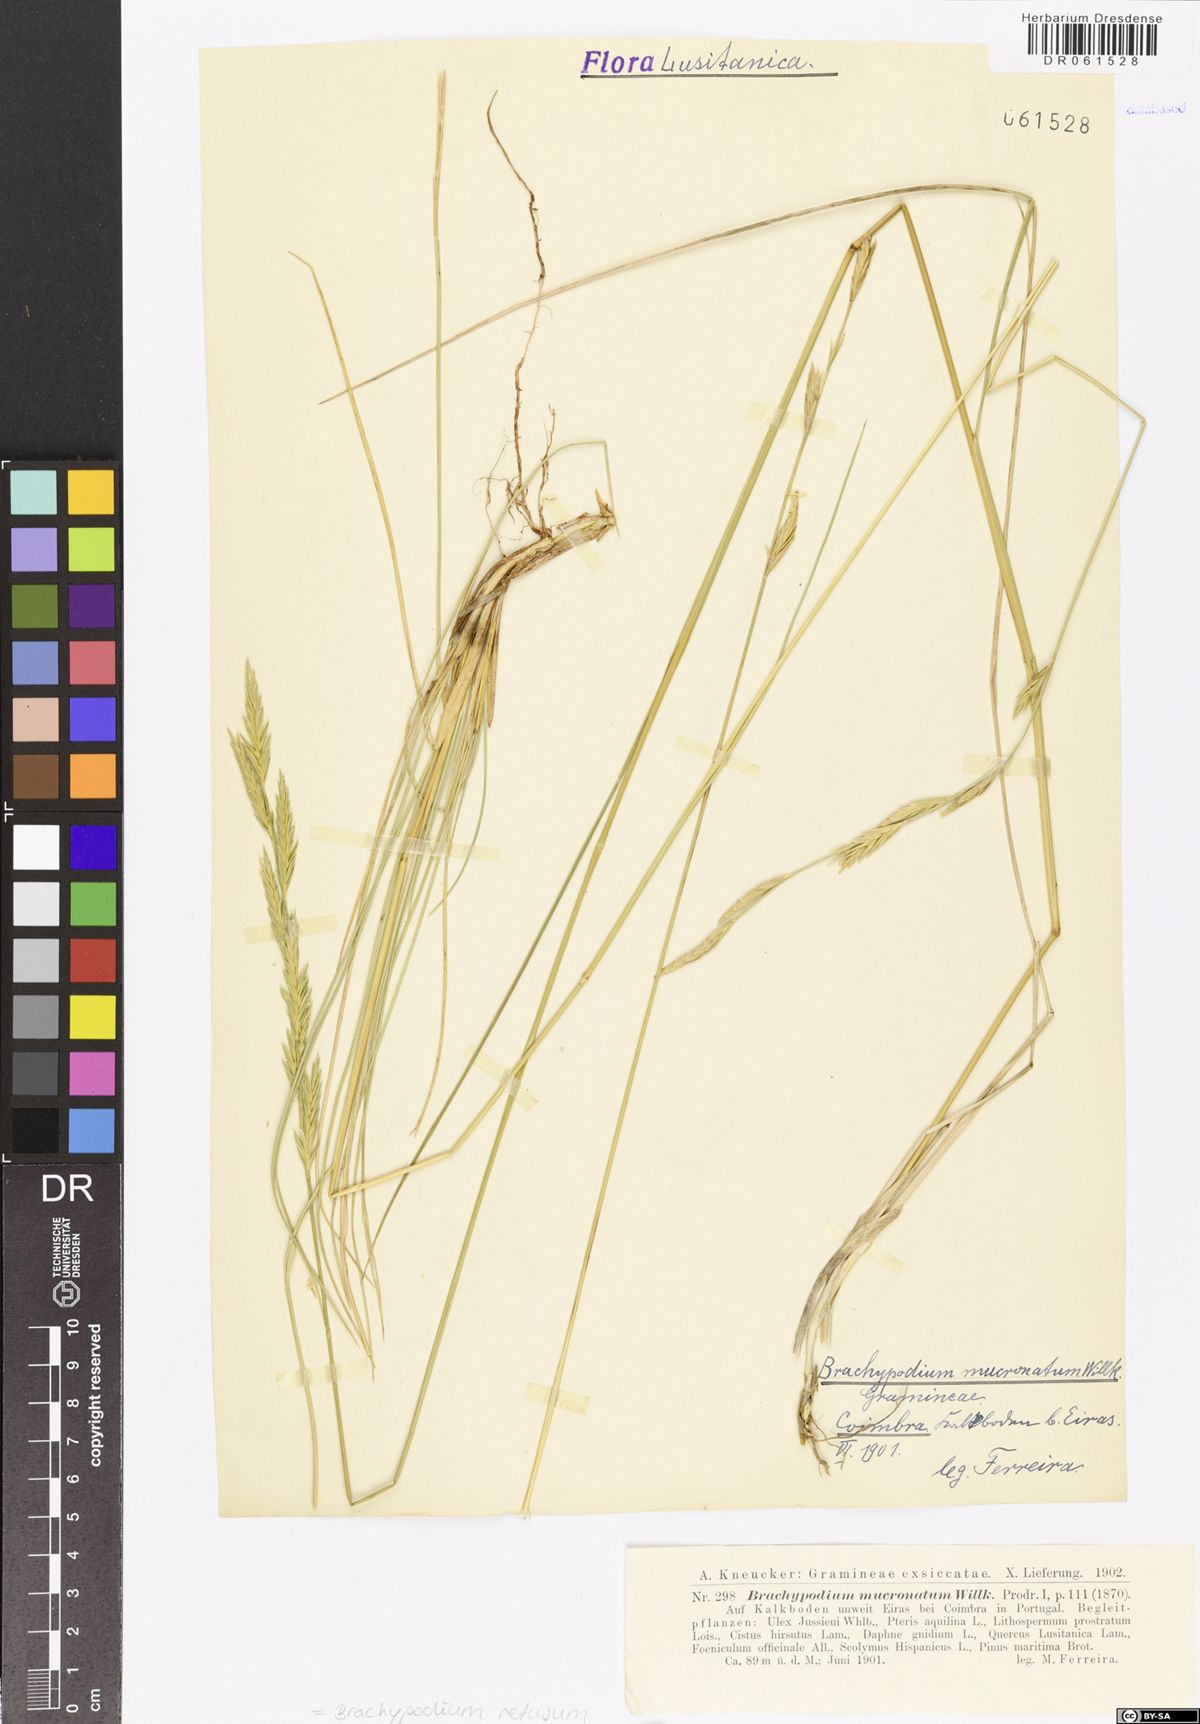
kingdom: Plantae
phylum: Tracheophyta
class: Liliopsida
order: Poales
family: Poaceae
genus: Brachypodium
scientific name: Brachypodium retusum
